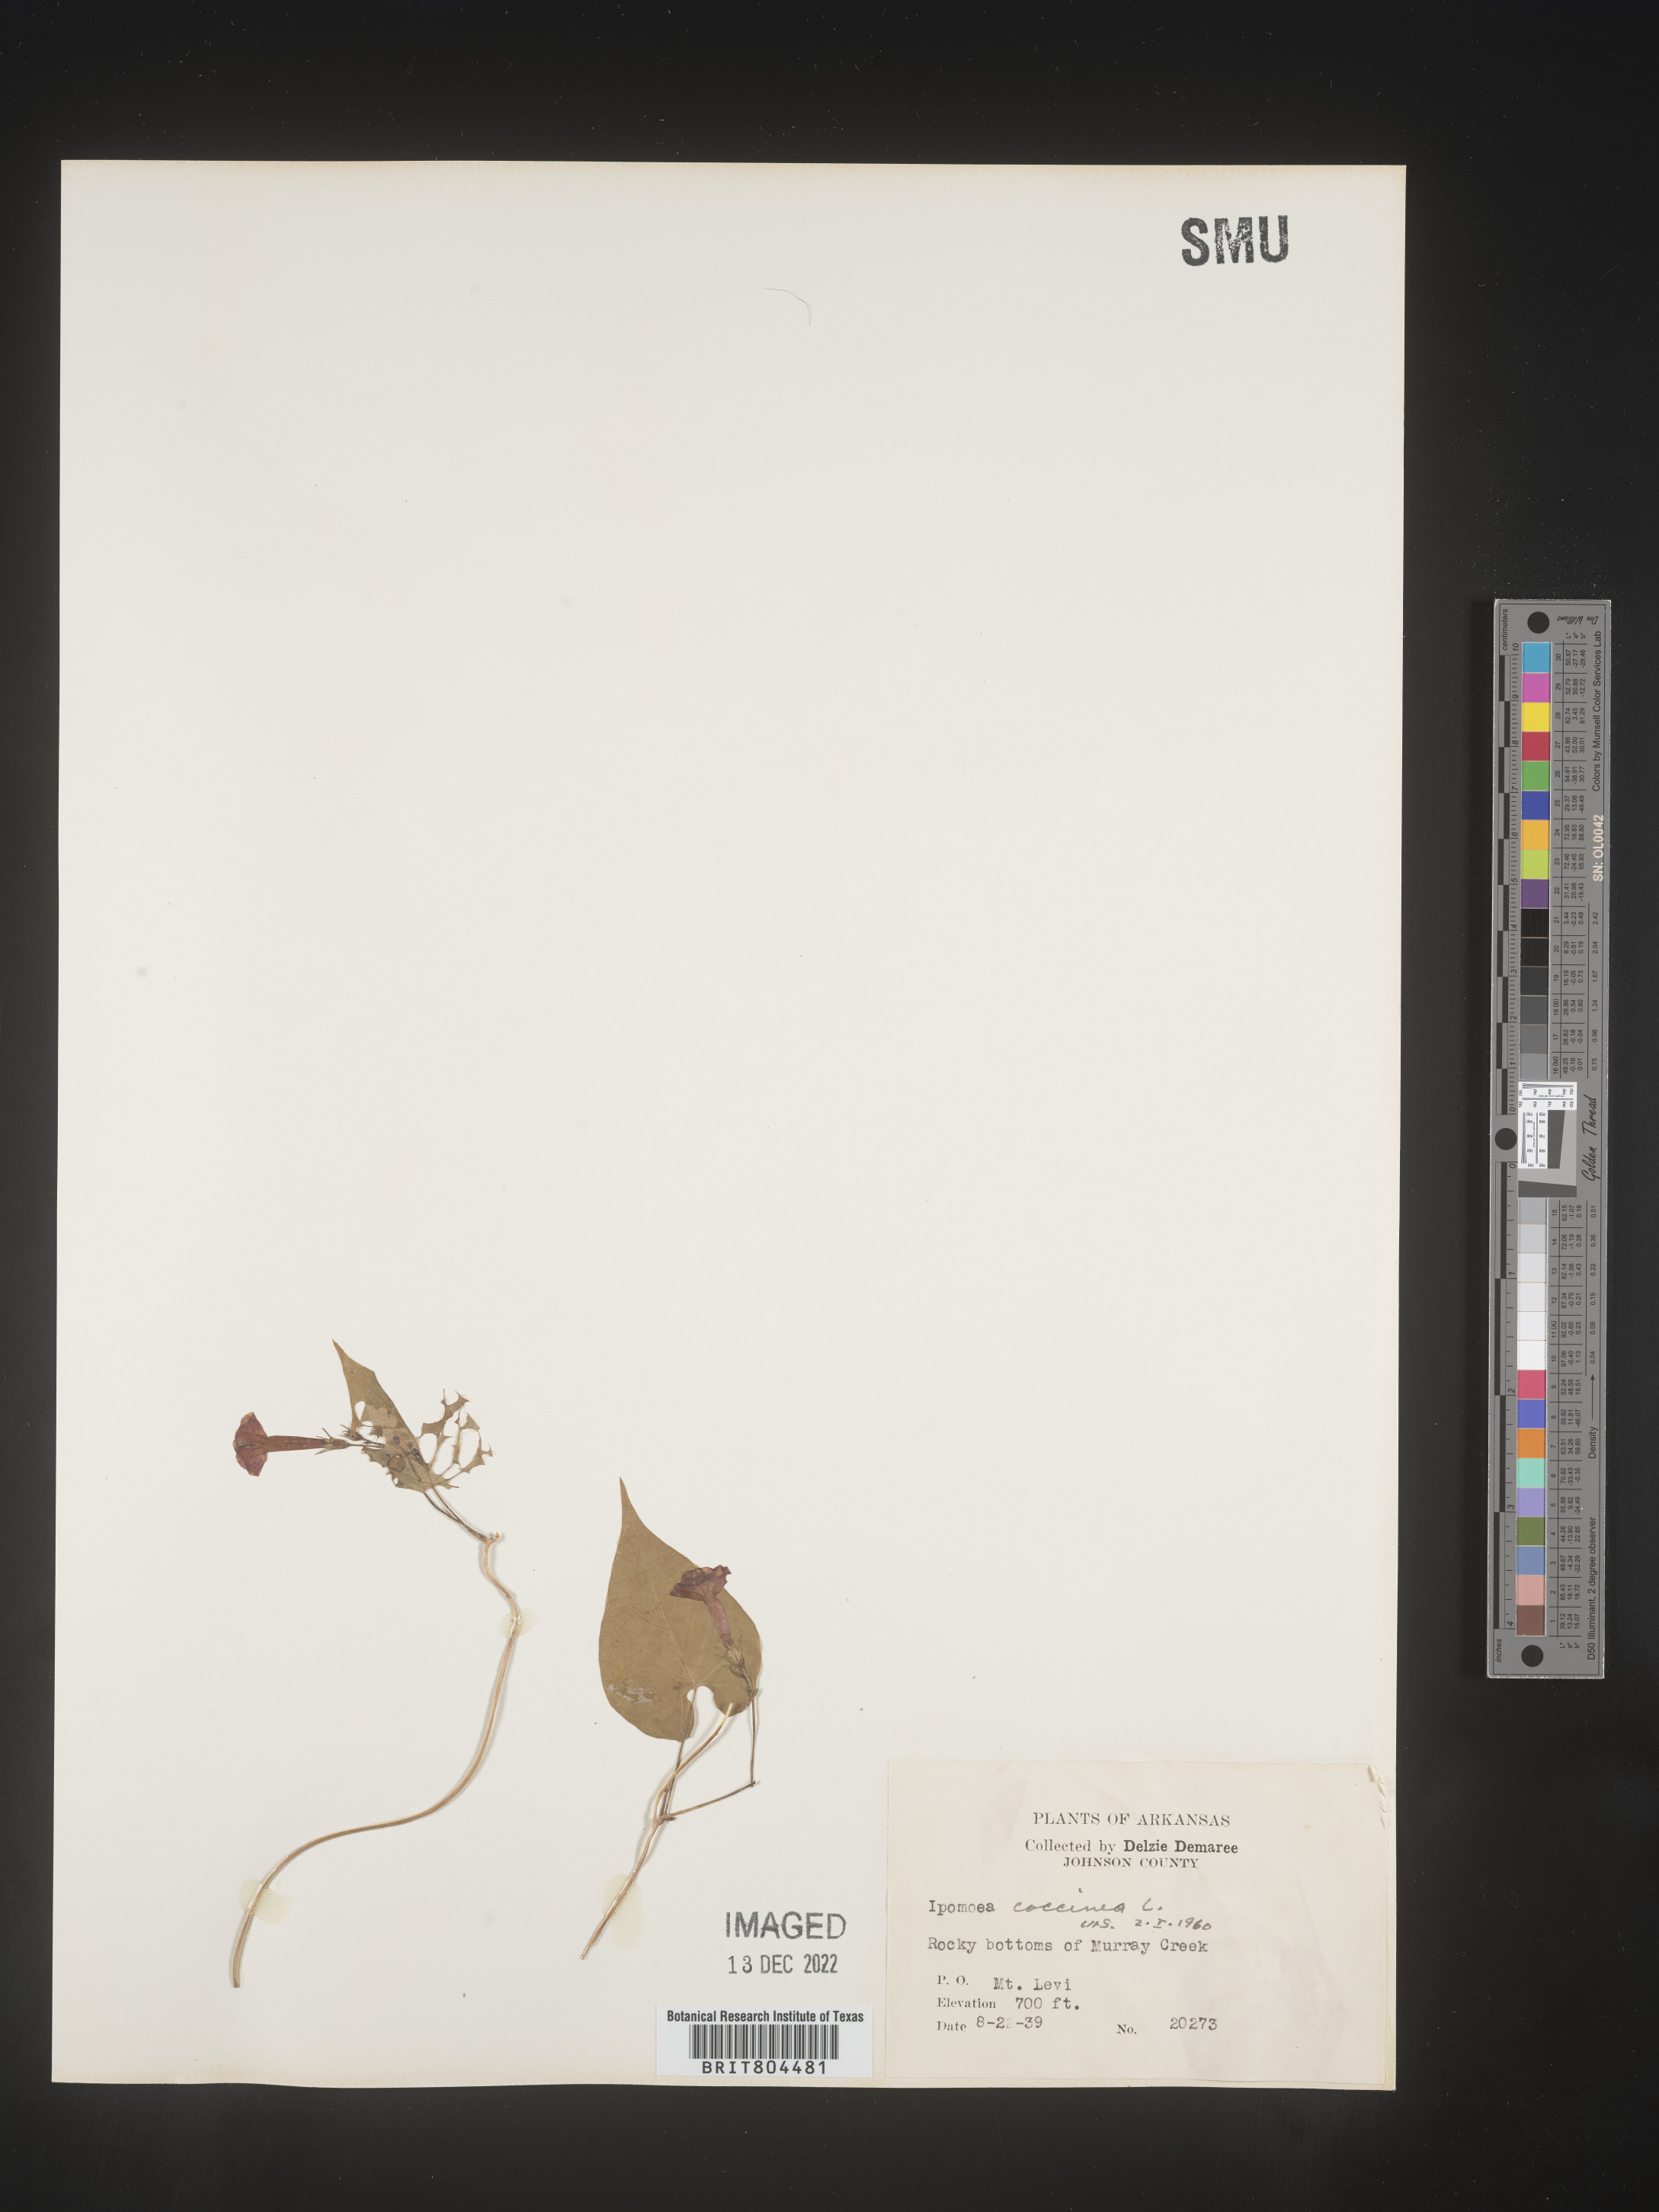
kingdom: Plantae
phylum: Tracheophyta
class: Magnoliopsida
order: Solanales
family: Convolvulaceae
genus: Ipomoea
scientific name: Ipomoea coccinea
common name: Red morning-glory
